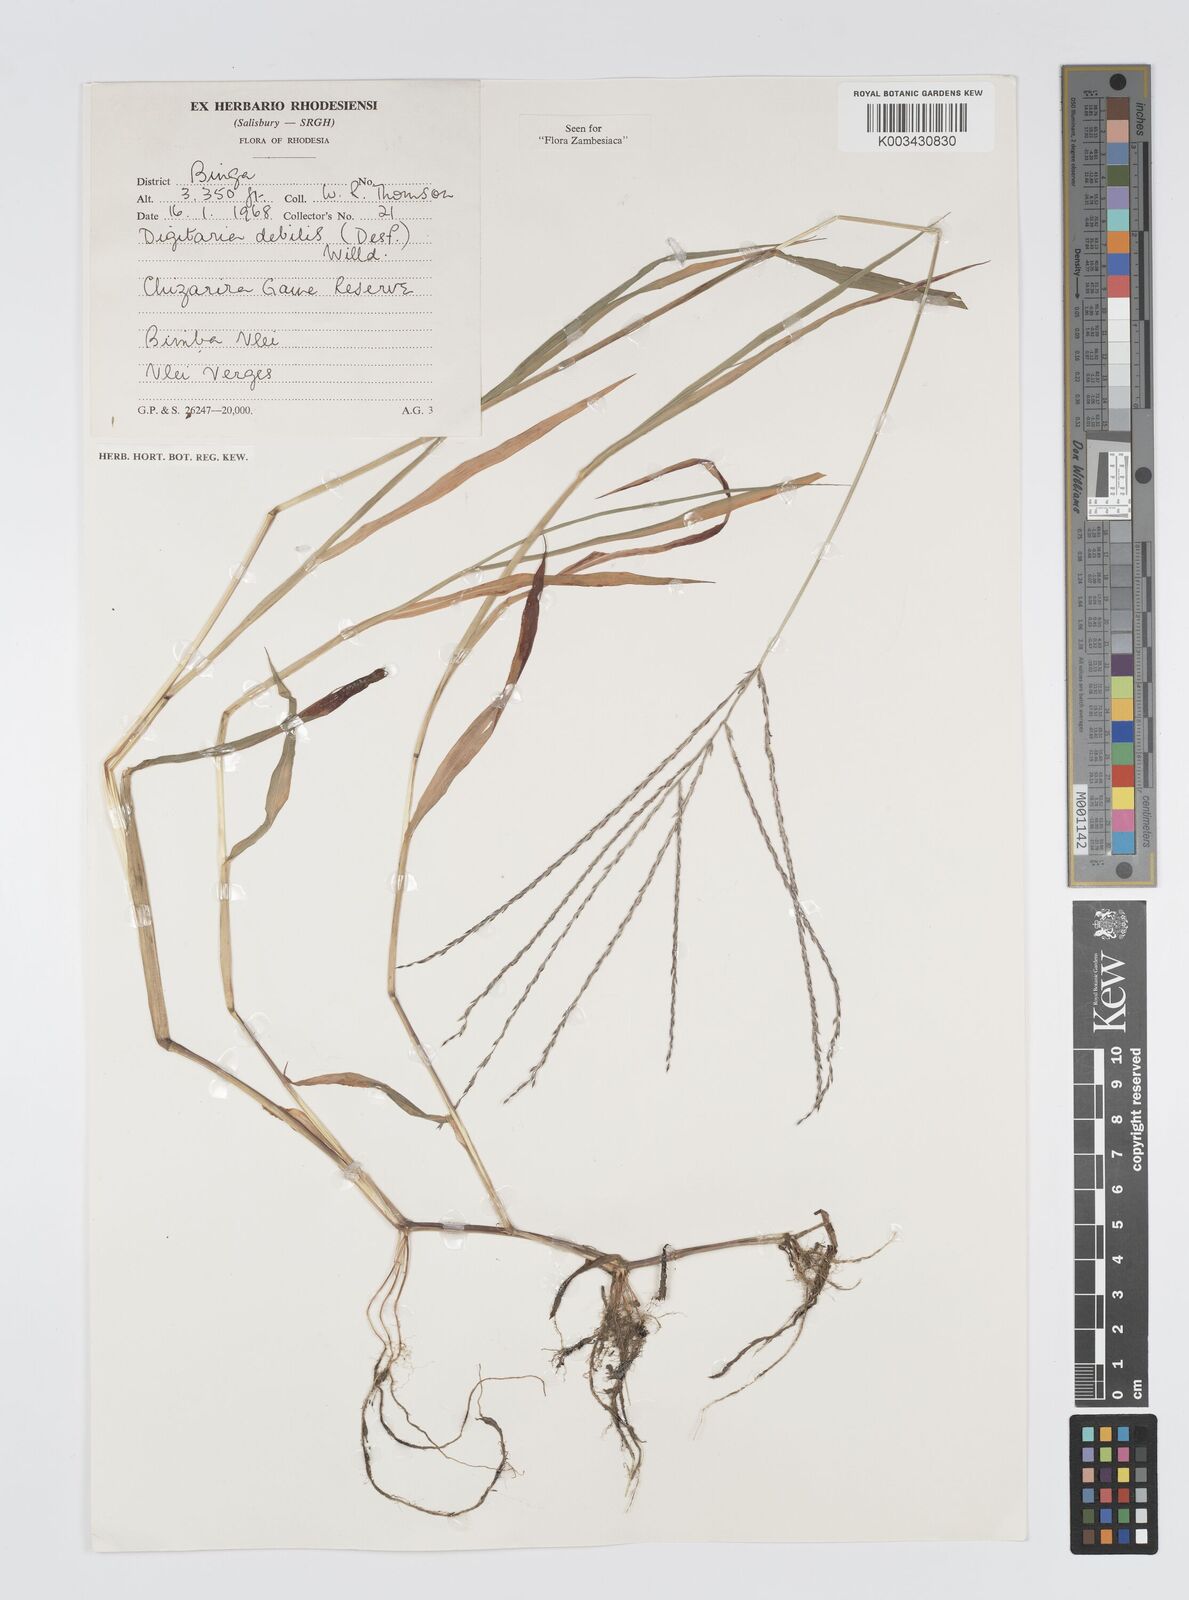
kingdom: Plantae
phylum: Tracheophyta
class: Liliopsida
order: Poales
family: Poaceae
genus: Digitaria
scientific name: Digitaria debilis
